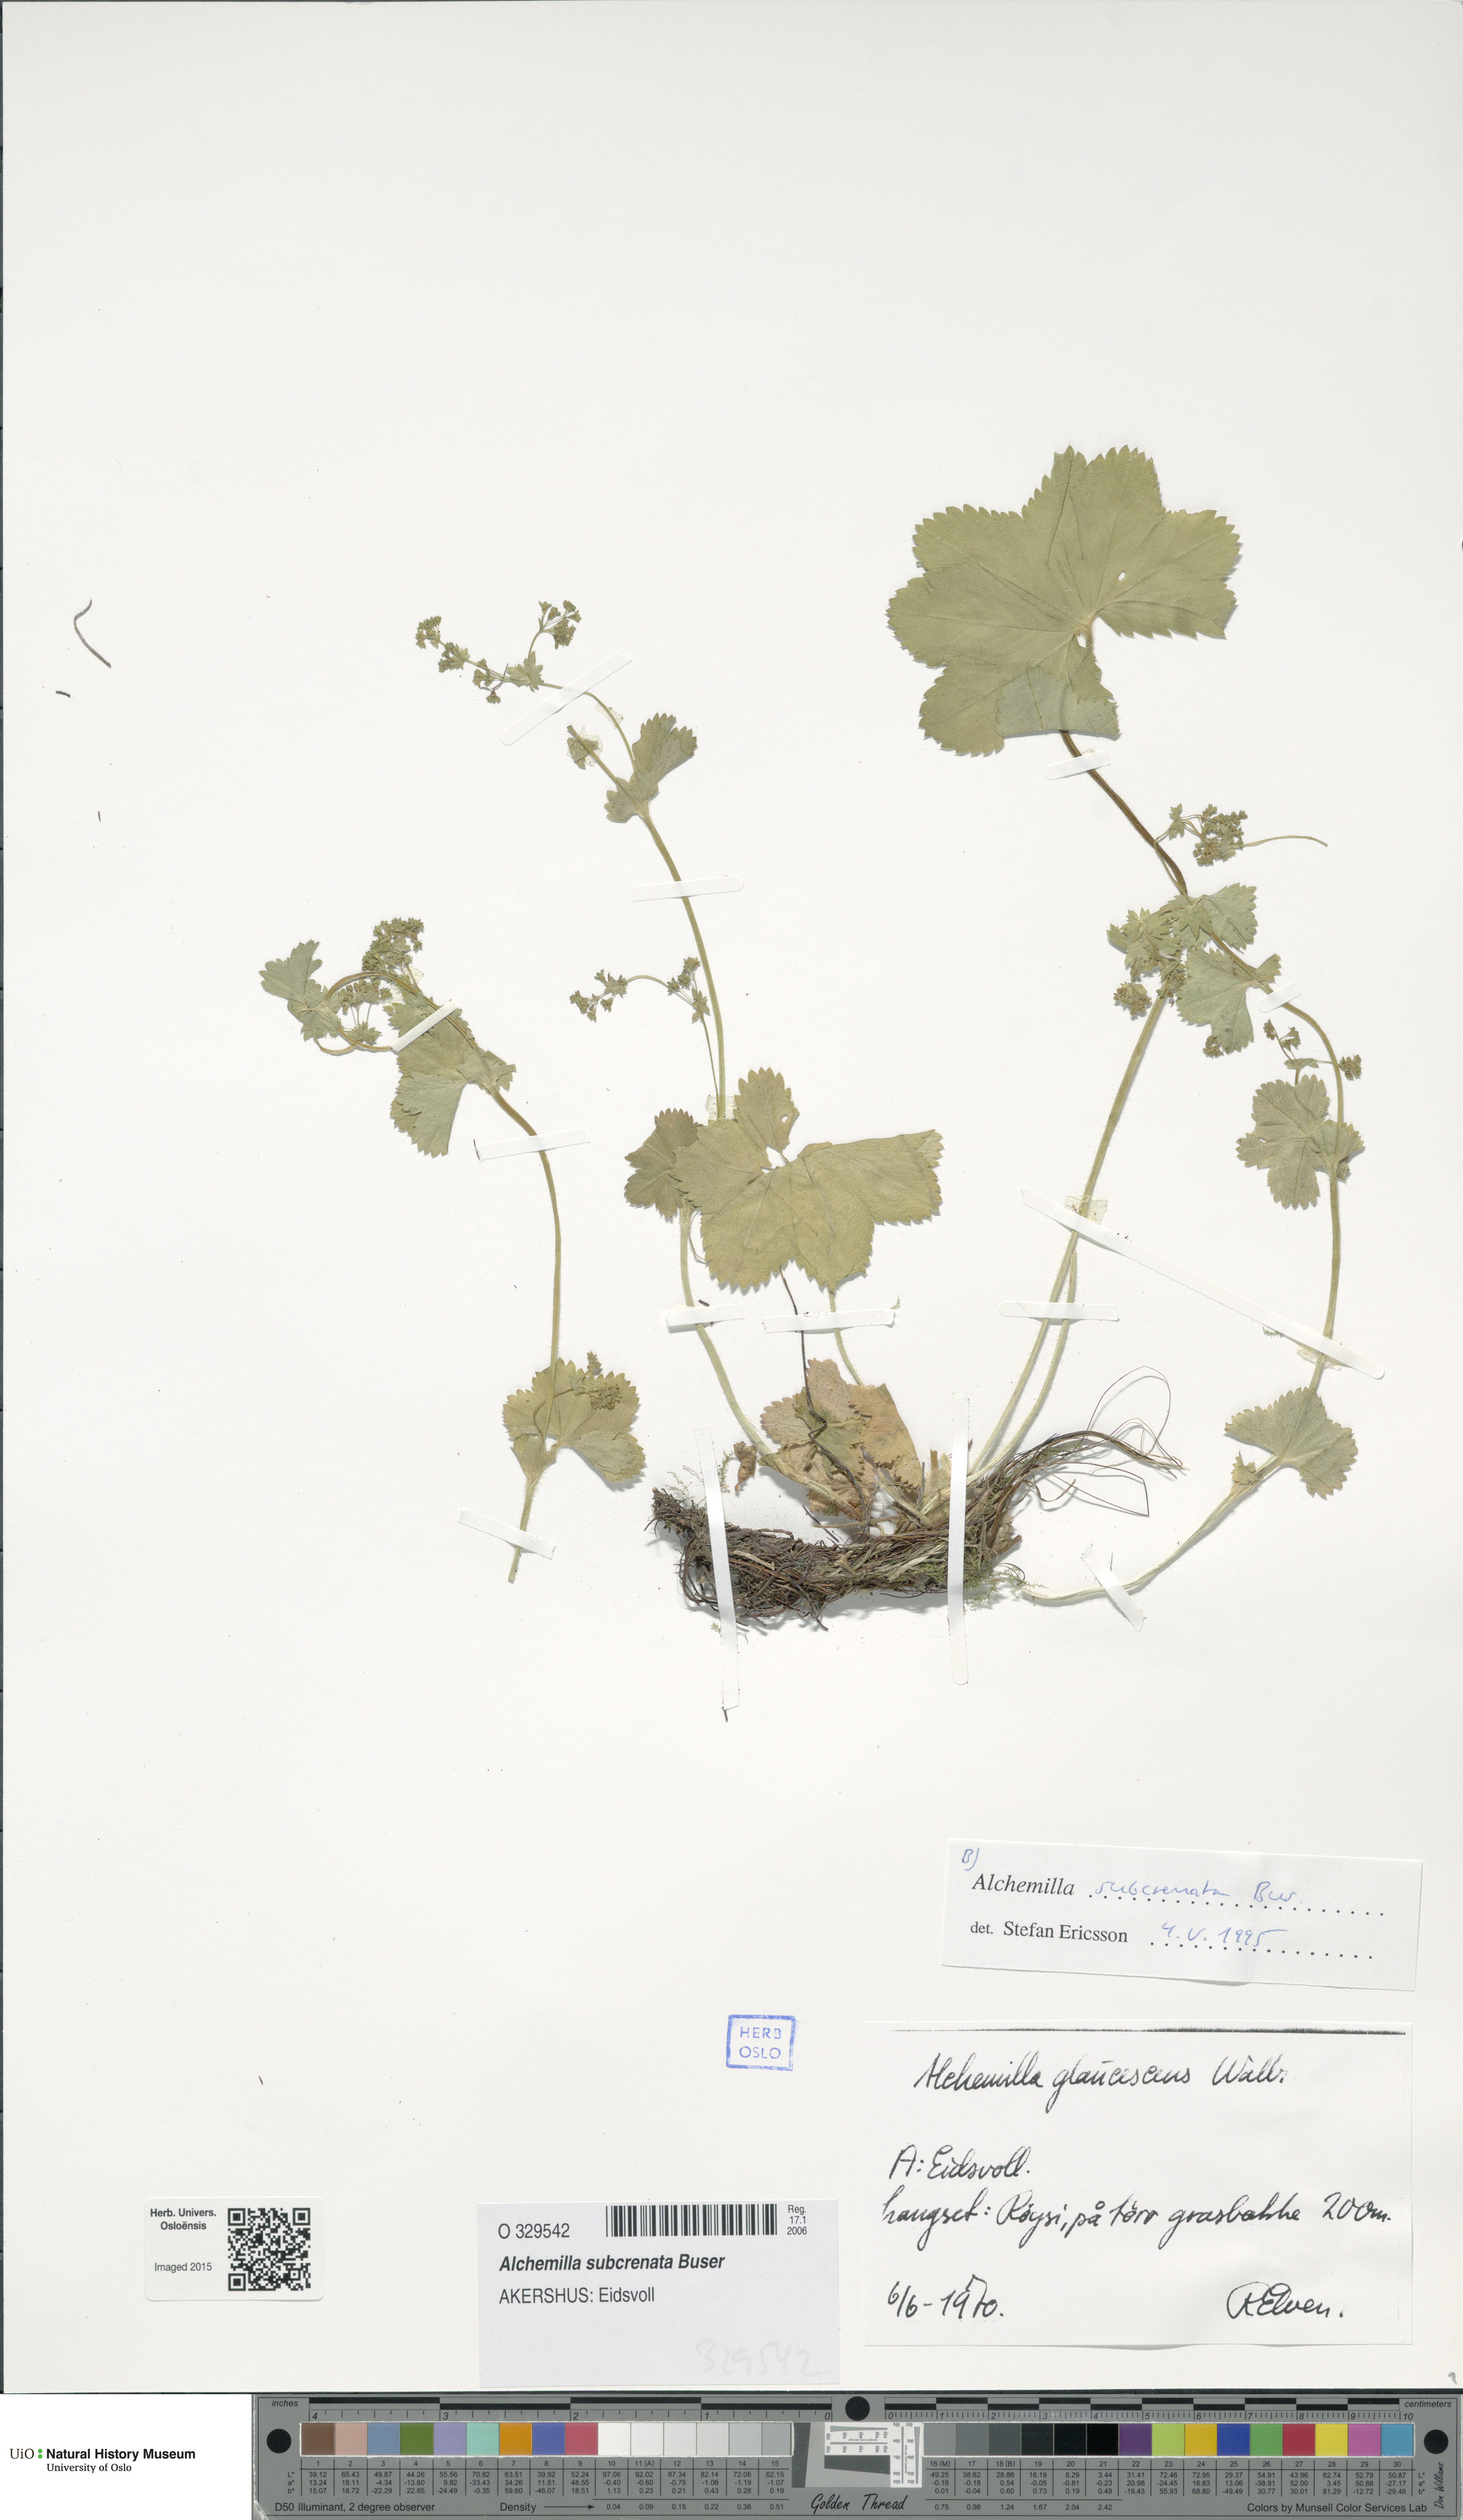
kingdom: Plantae
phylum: Tracheophyta
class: Magnoliopsida
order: Rosales
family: Rosaceae
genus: Alchemilla
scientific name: Alchemilla subcrenata
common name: Broadtooth lady's mantle
